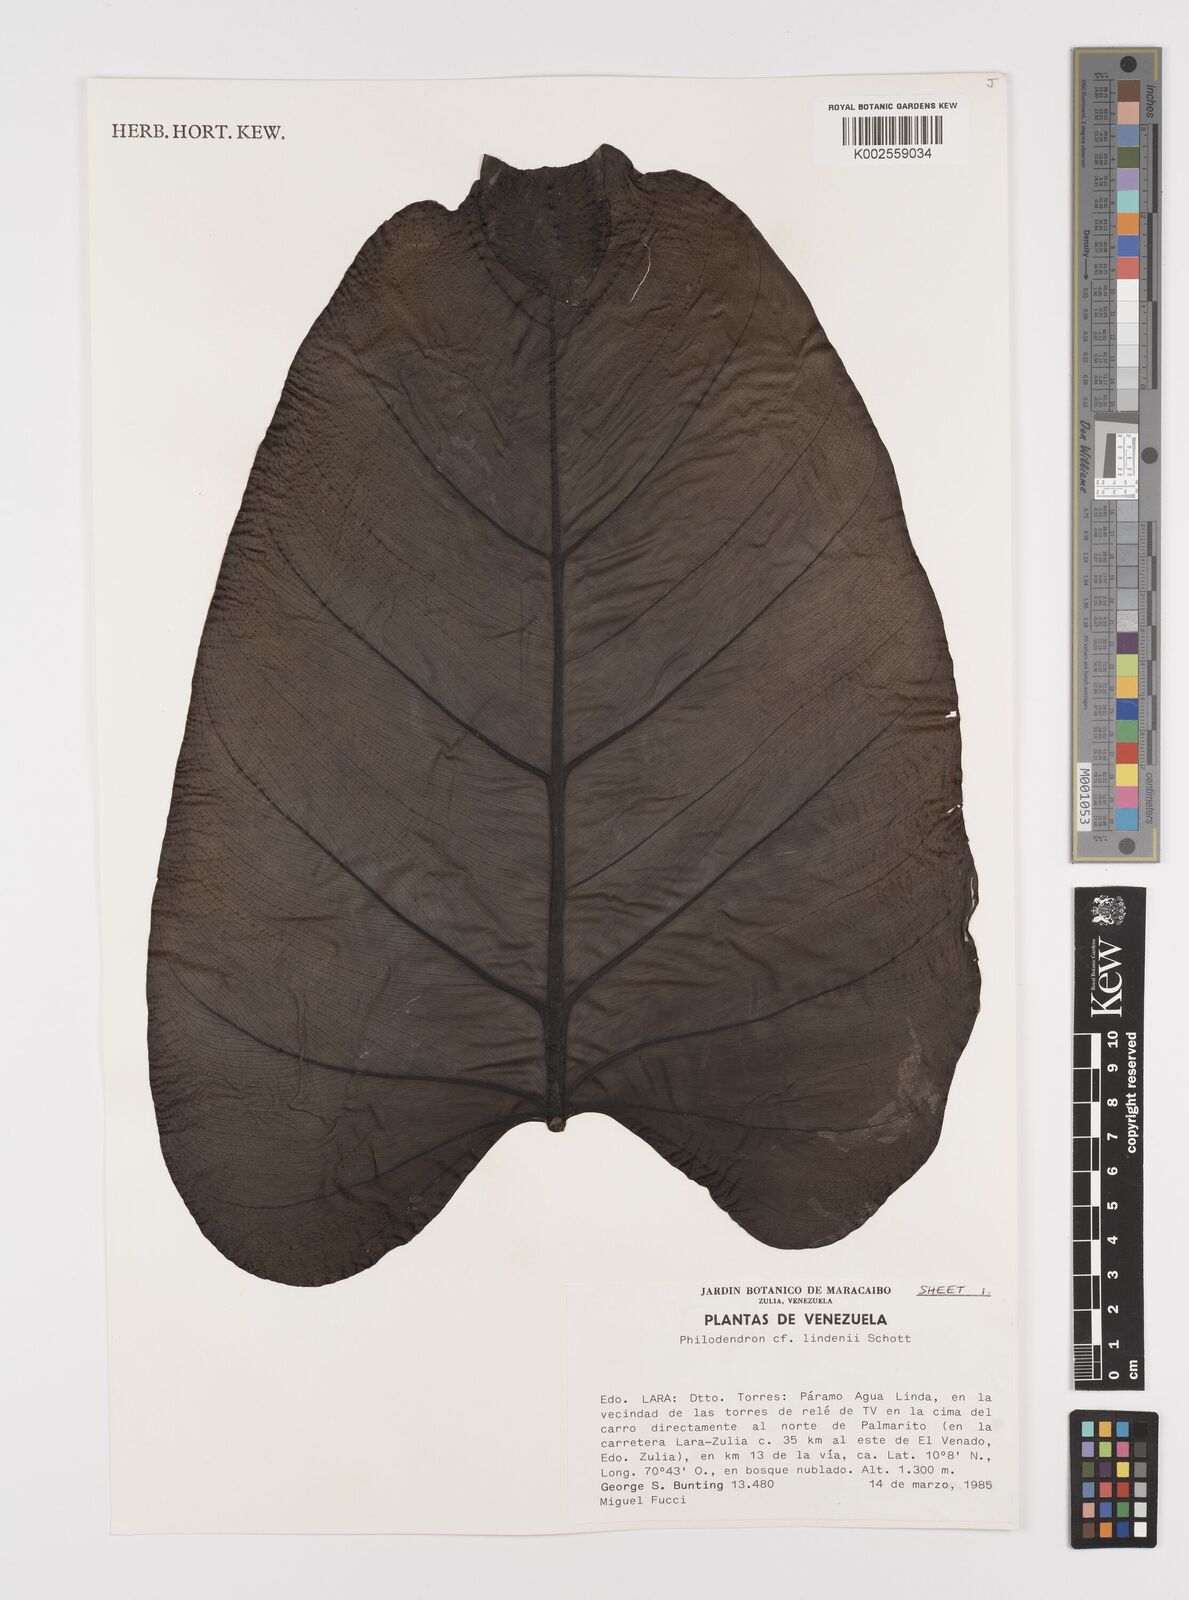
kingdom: Plantae
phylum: Tracheophyta
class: Liliopsida
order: Alismatales
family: Araceae
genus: Philodendron
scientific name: Philodendron lindenii
